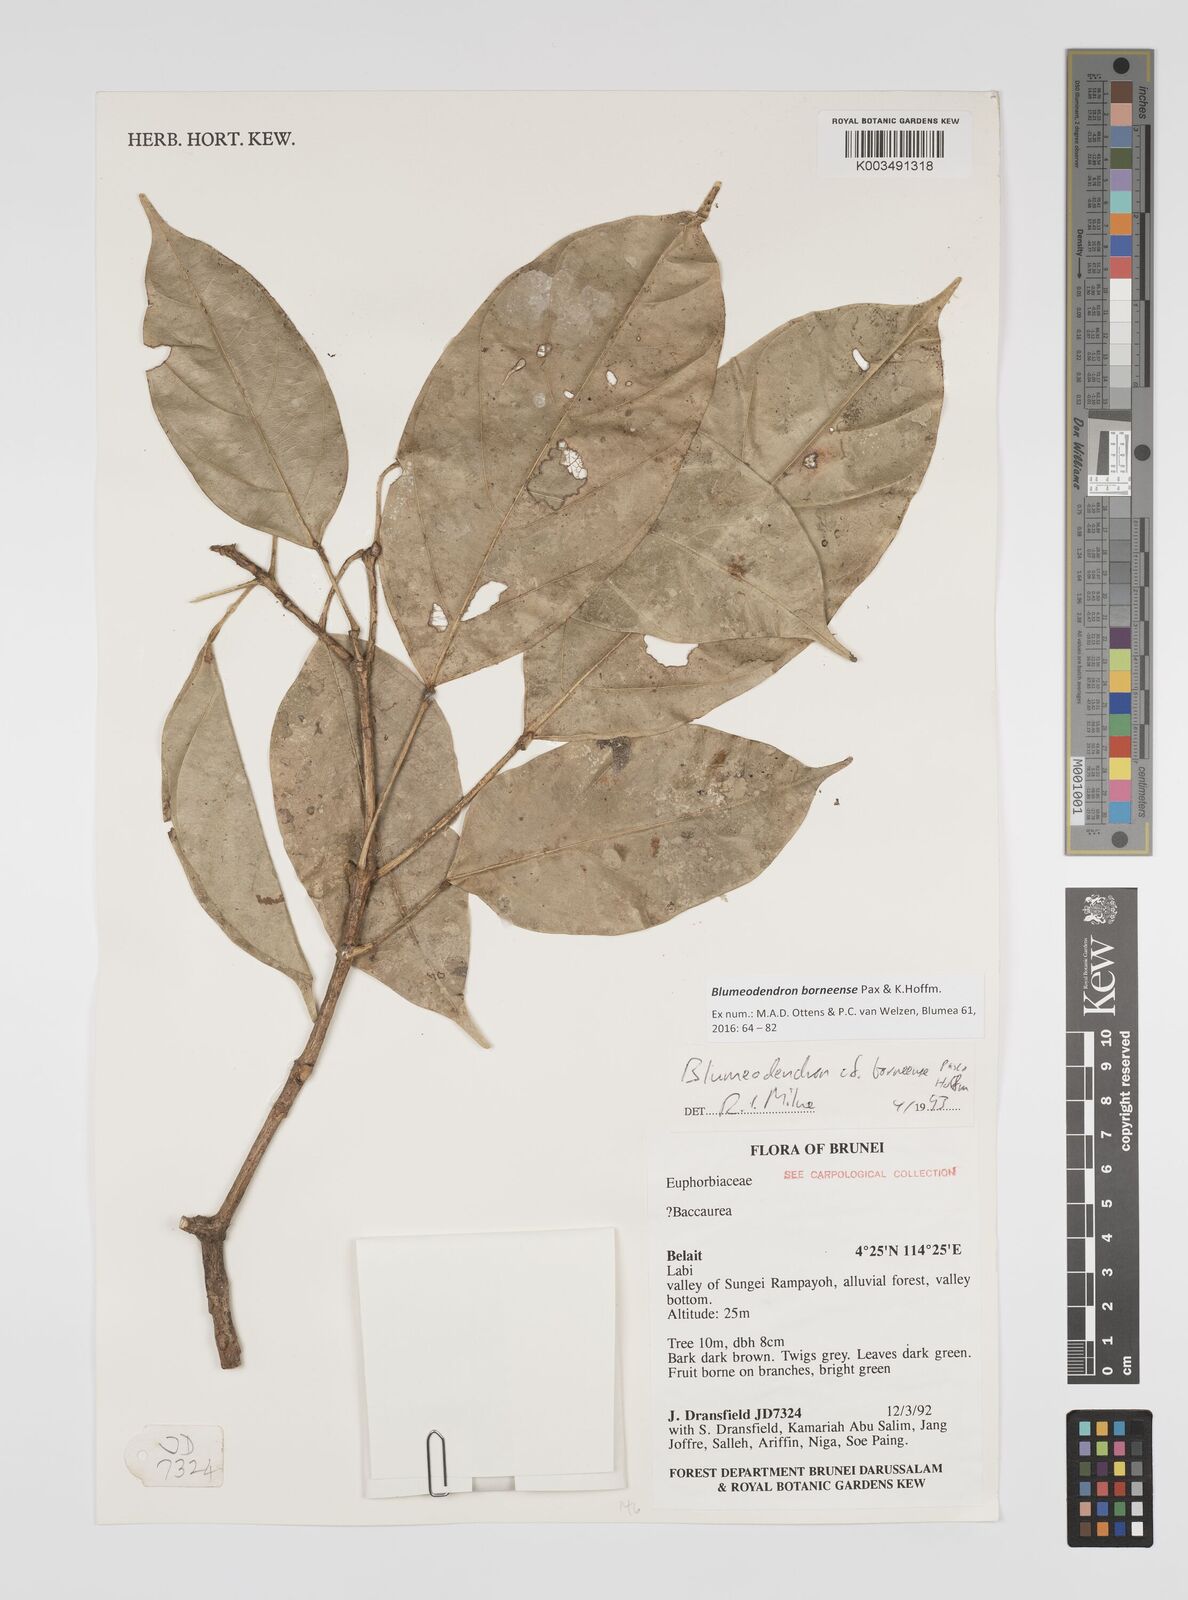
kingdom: Plantae
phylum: Tracheophyta
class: Magnoliopsida
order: Malpighiales
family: Euphorbiaceae
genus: Blumeodendron
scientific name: Blumeodendron borneense
